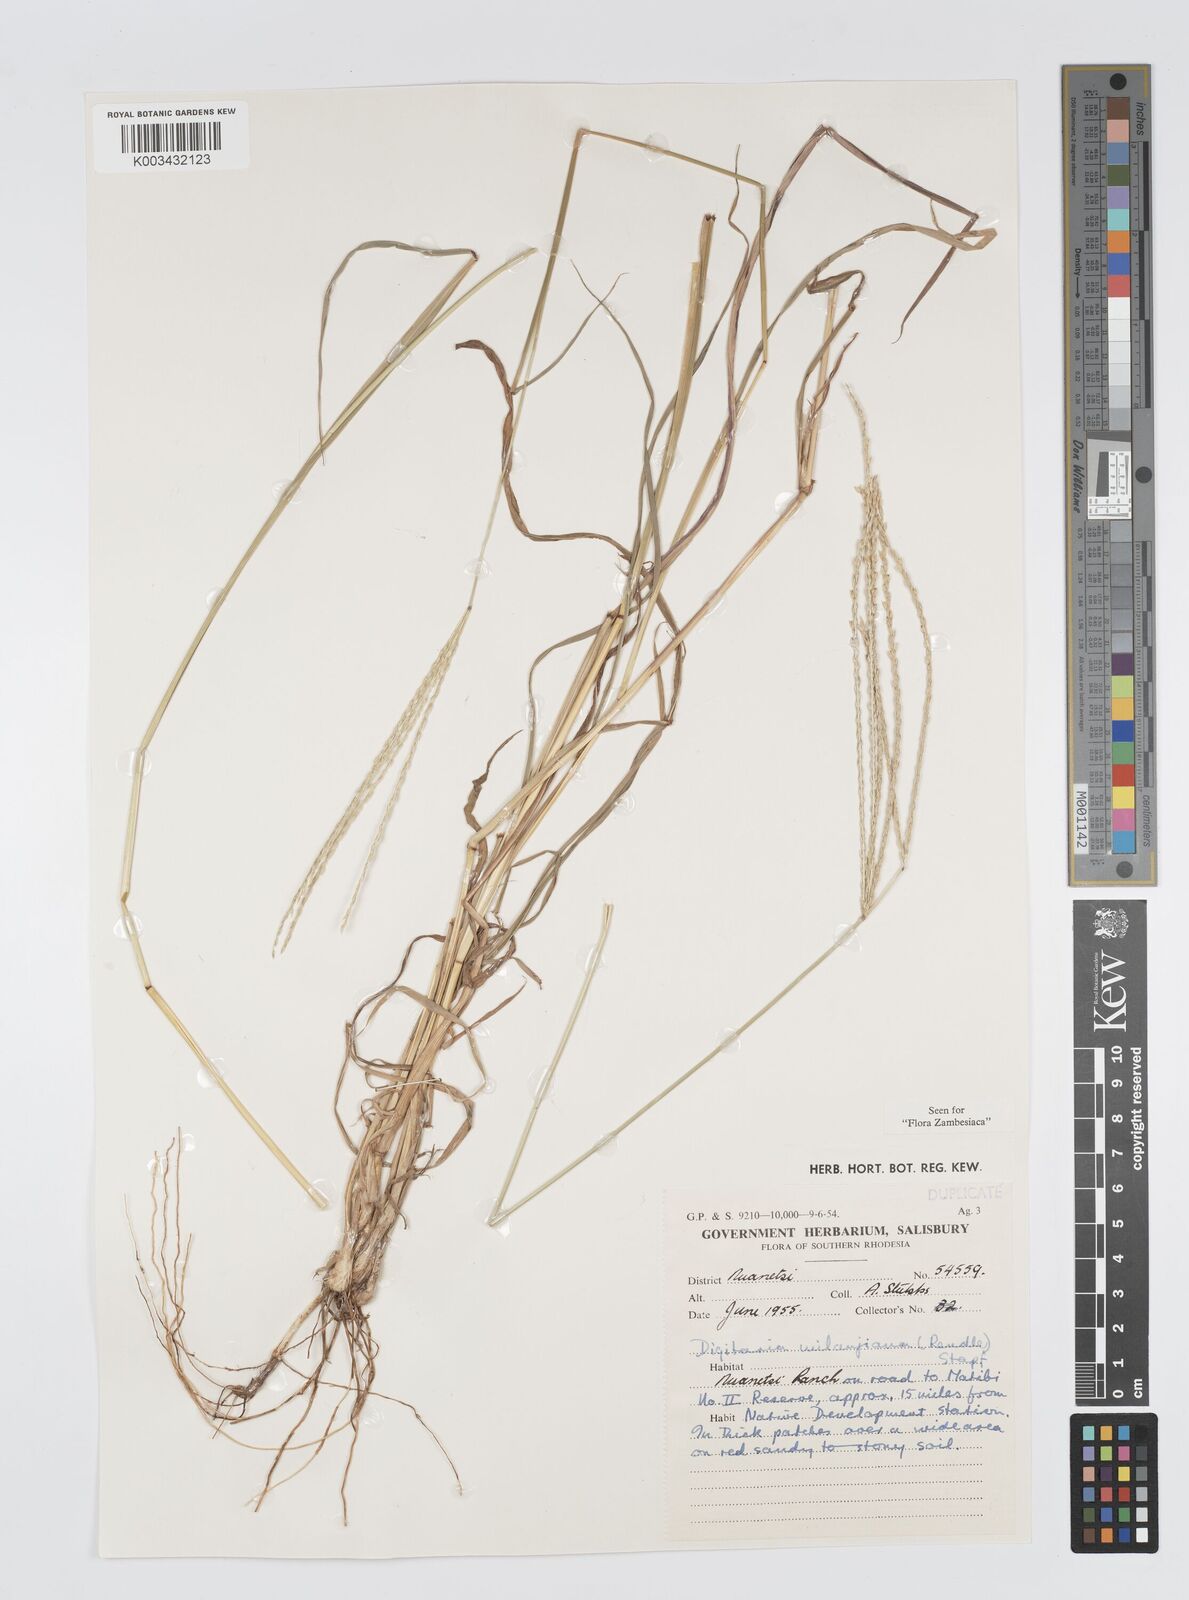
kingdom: Plantae
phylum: Tracheophyta
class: Liliopsida
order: Poales
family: Poaceae
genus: Digitaria
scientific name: Digitaria milanjiana
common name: Madagascar crabgrass
